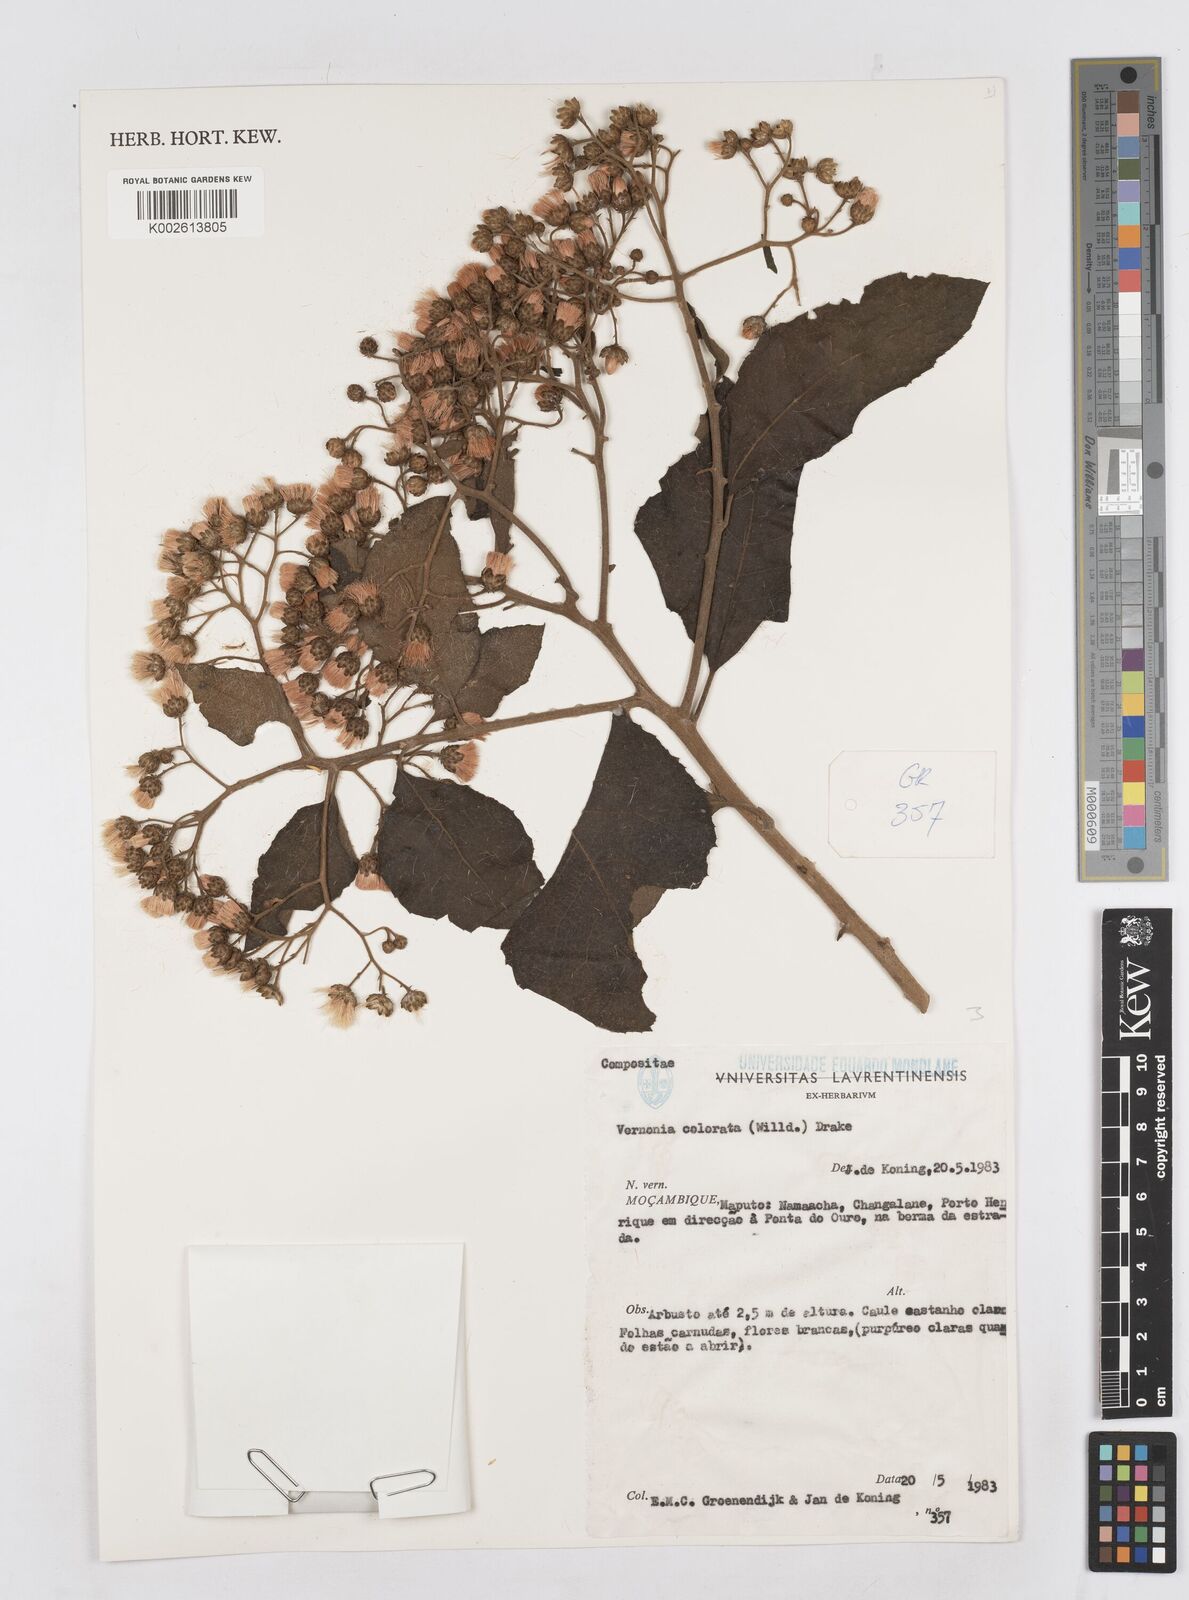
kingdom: Plantae
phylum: Tracheophyta
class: Magnoliopsida
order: Asterales
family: Asteraceae
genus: Vernonia
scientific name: Vernonia colorata
